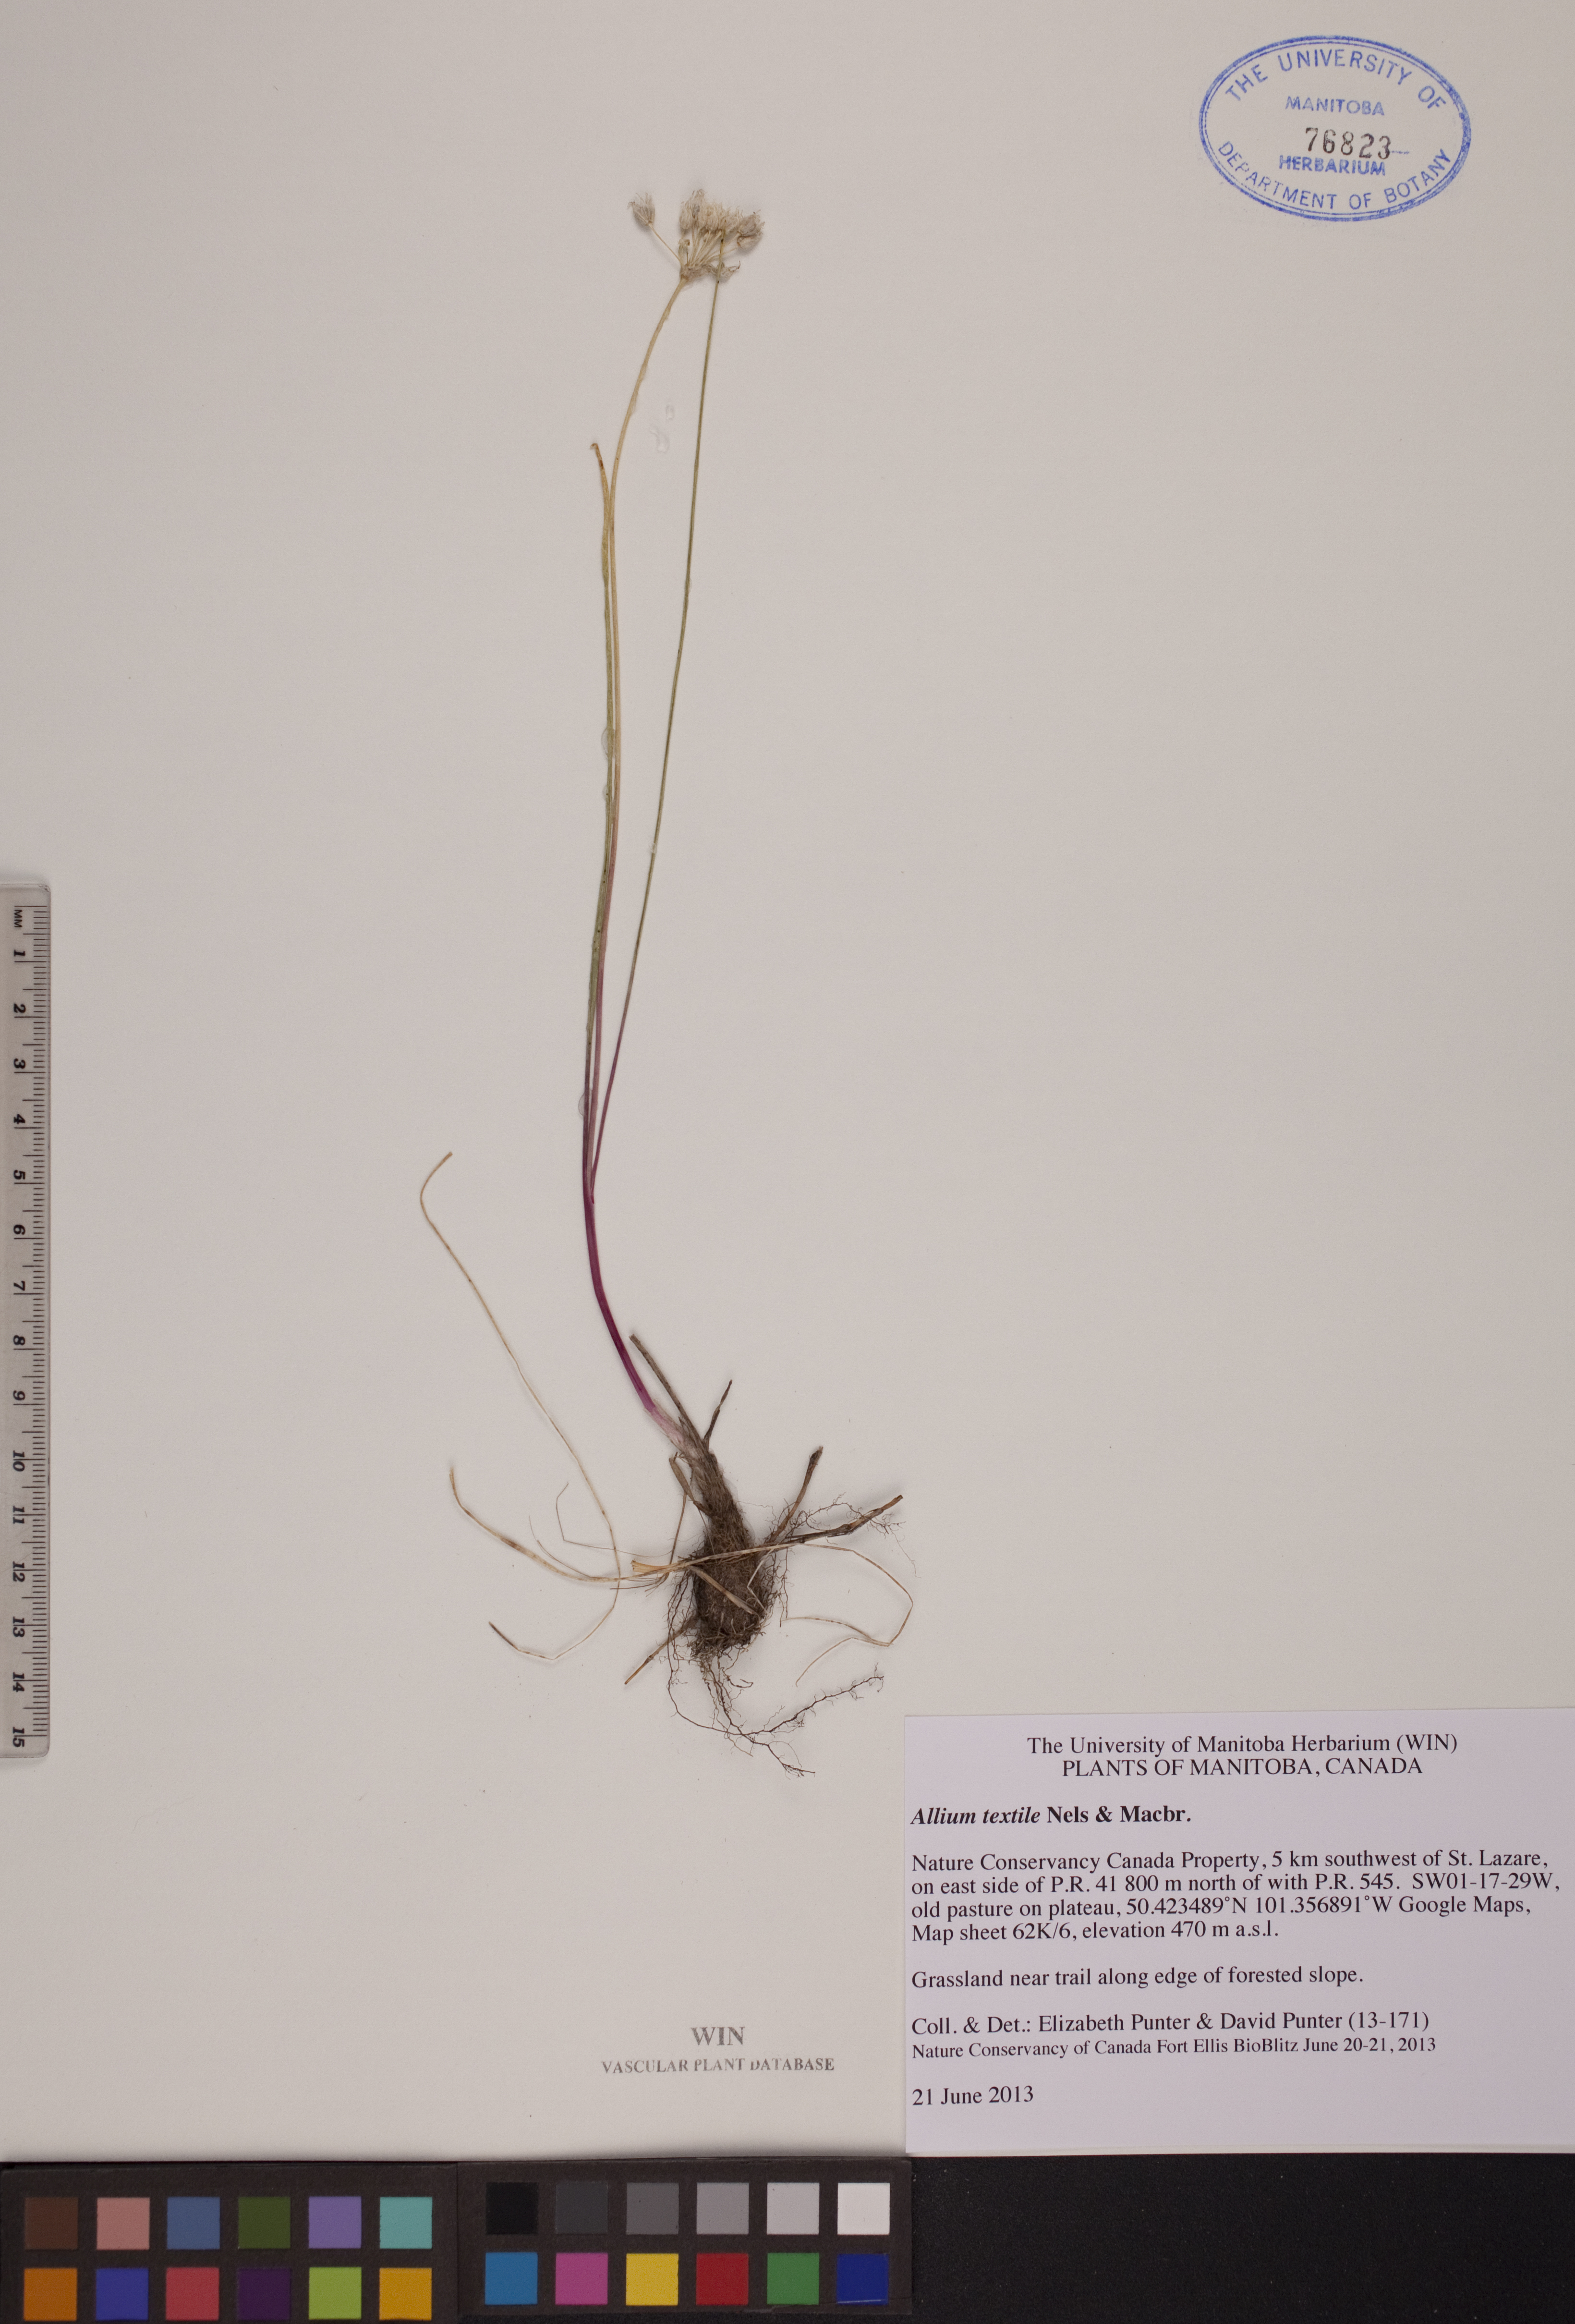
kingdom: Plantae
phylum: Tracheophyta
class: Liliopsida
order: Asparagales
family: Amaryllidaceae
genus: Allium
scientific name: Allium textile
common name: Prairie onion
